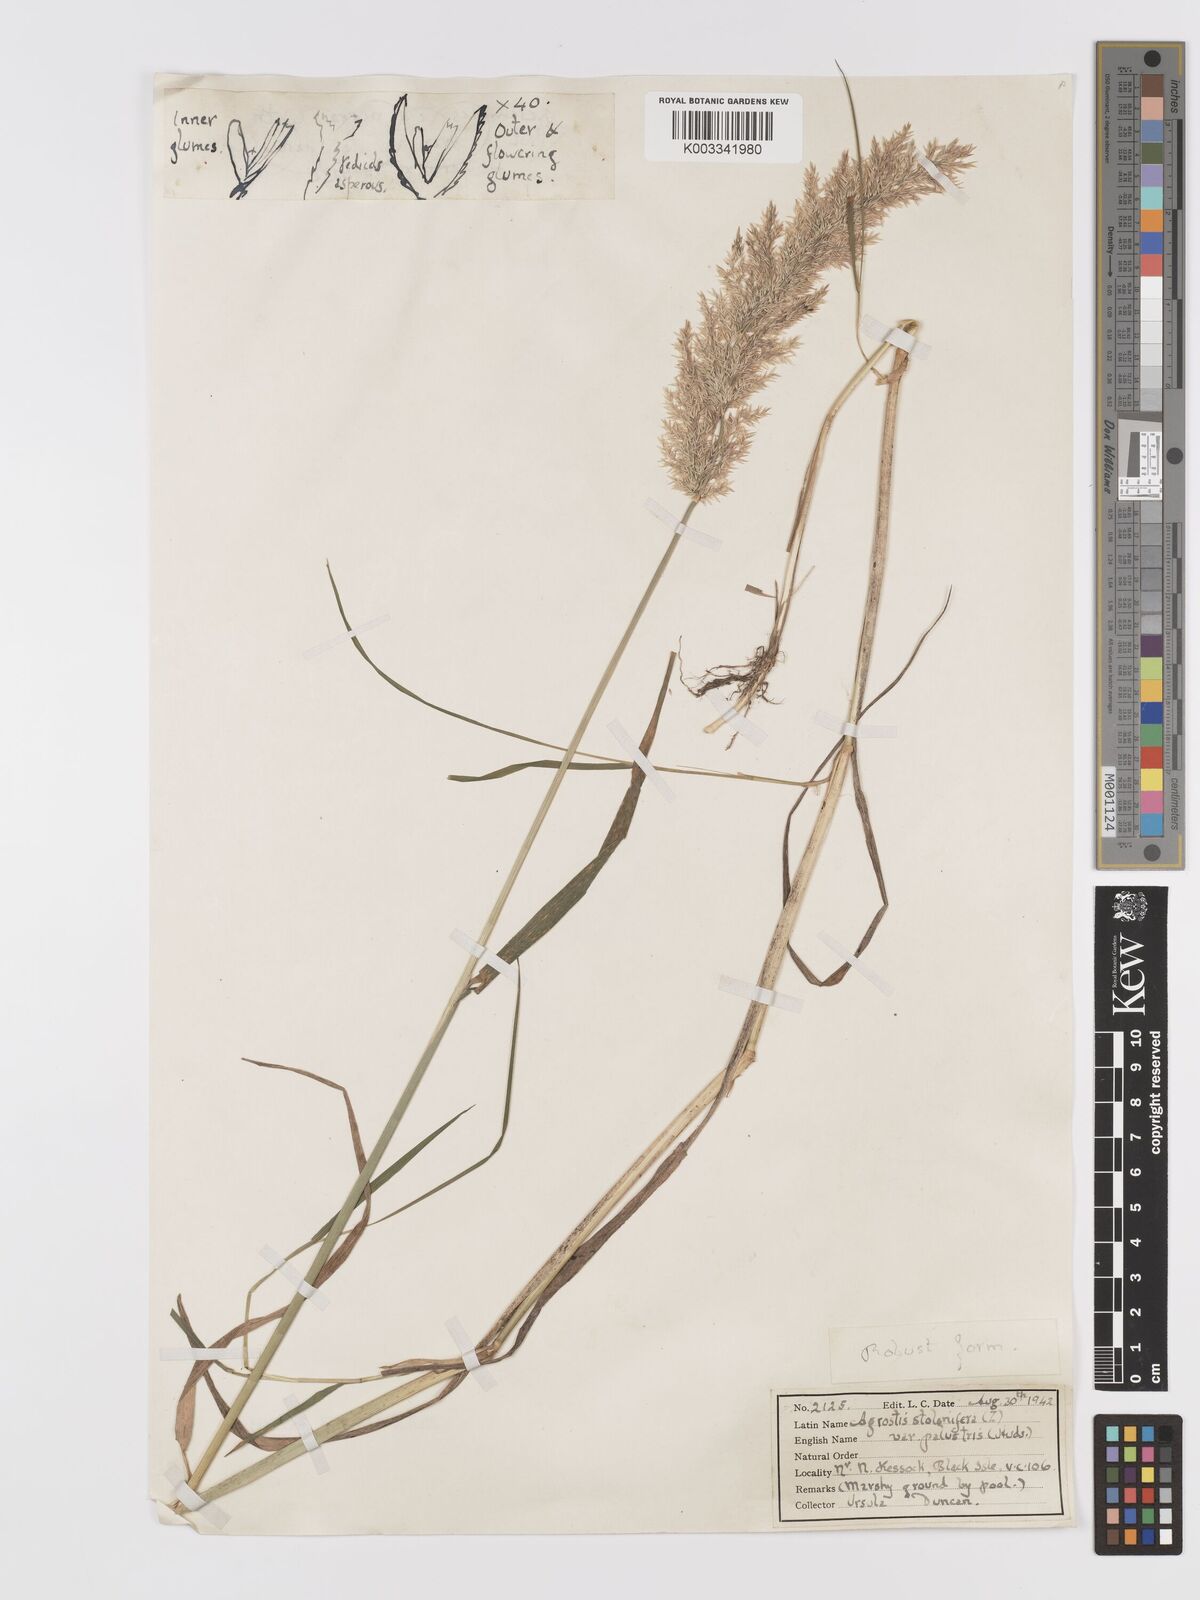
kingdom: Plantae
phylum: Tracheophyta
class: Liliopsida
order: Poales
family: Poaceae
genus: Agrostis
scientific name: Agrostis stolonifera
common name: Creeping bentgrass
